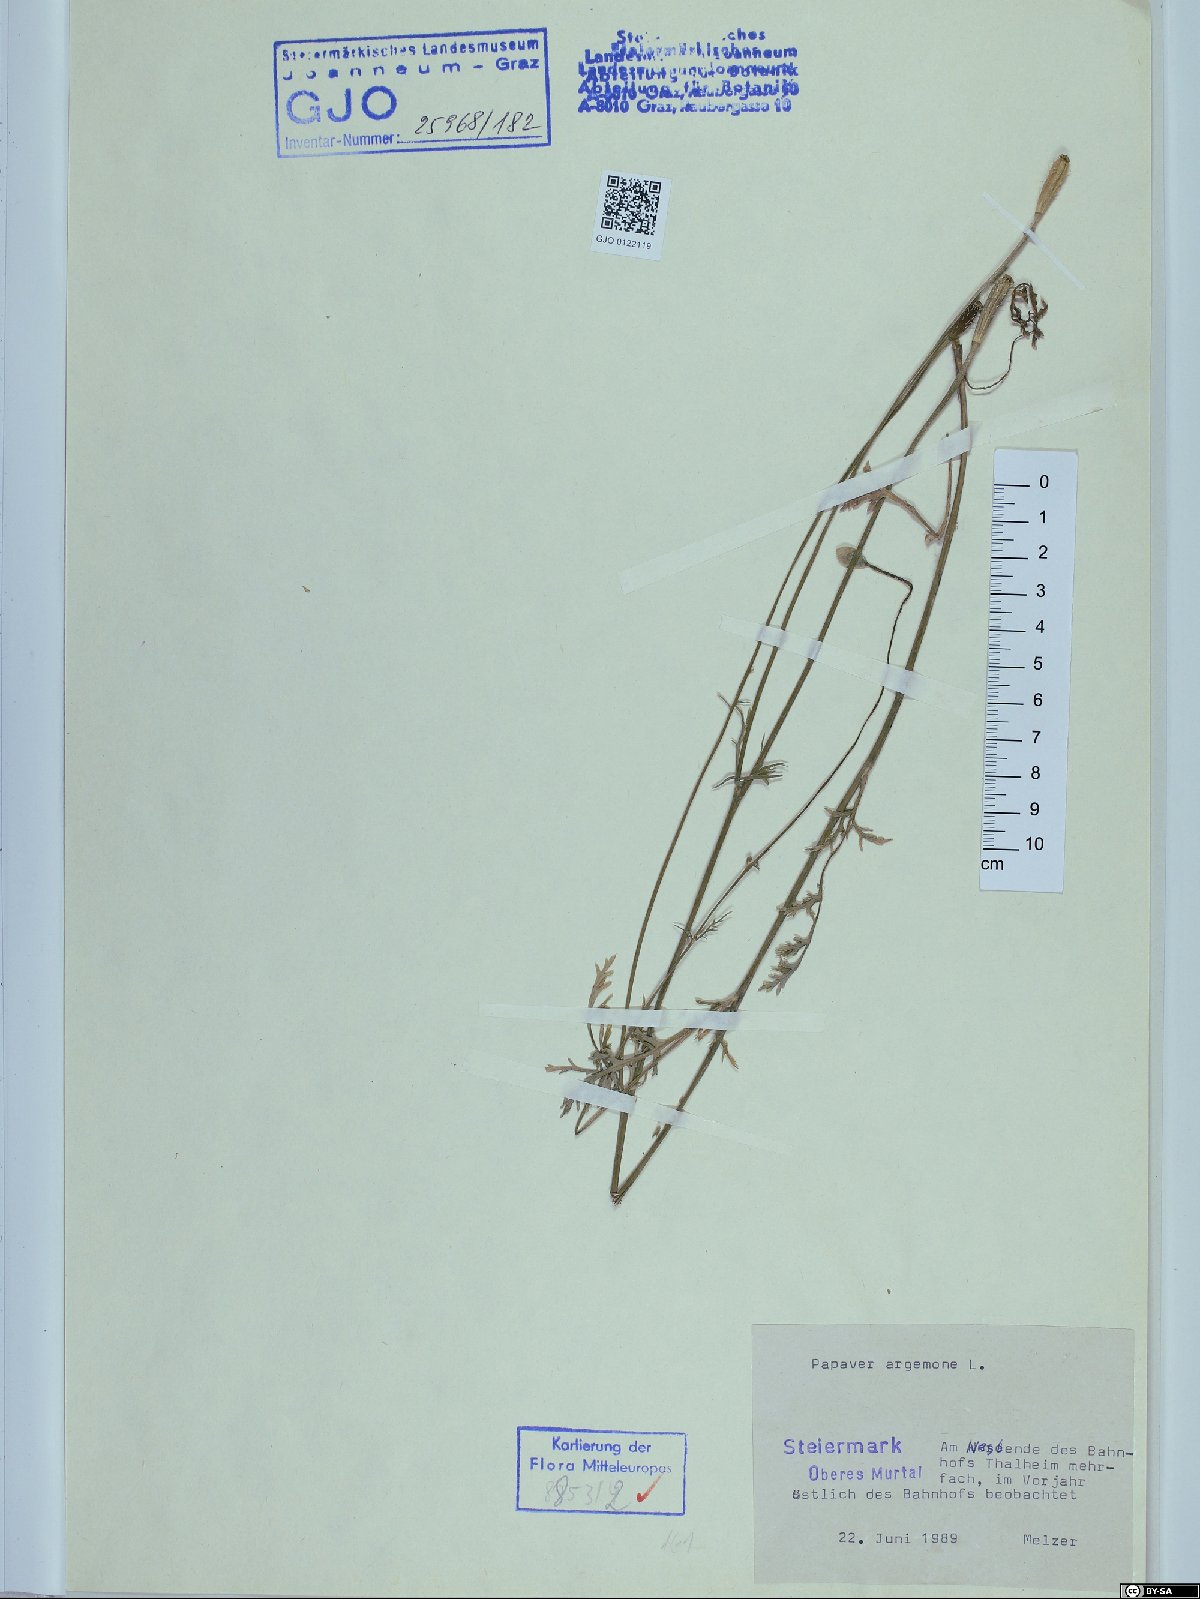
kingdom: Plantae
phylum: Tracheophyta
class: Magnoliopsida
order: Ranunculales
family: Papaveraceae
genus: Roemeria
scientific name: Roemeria argemone
